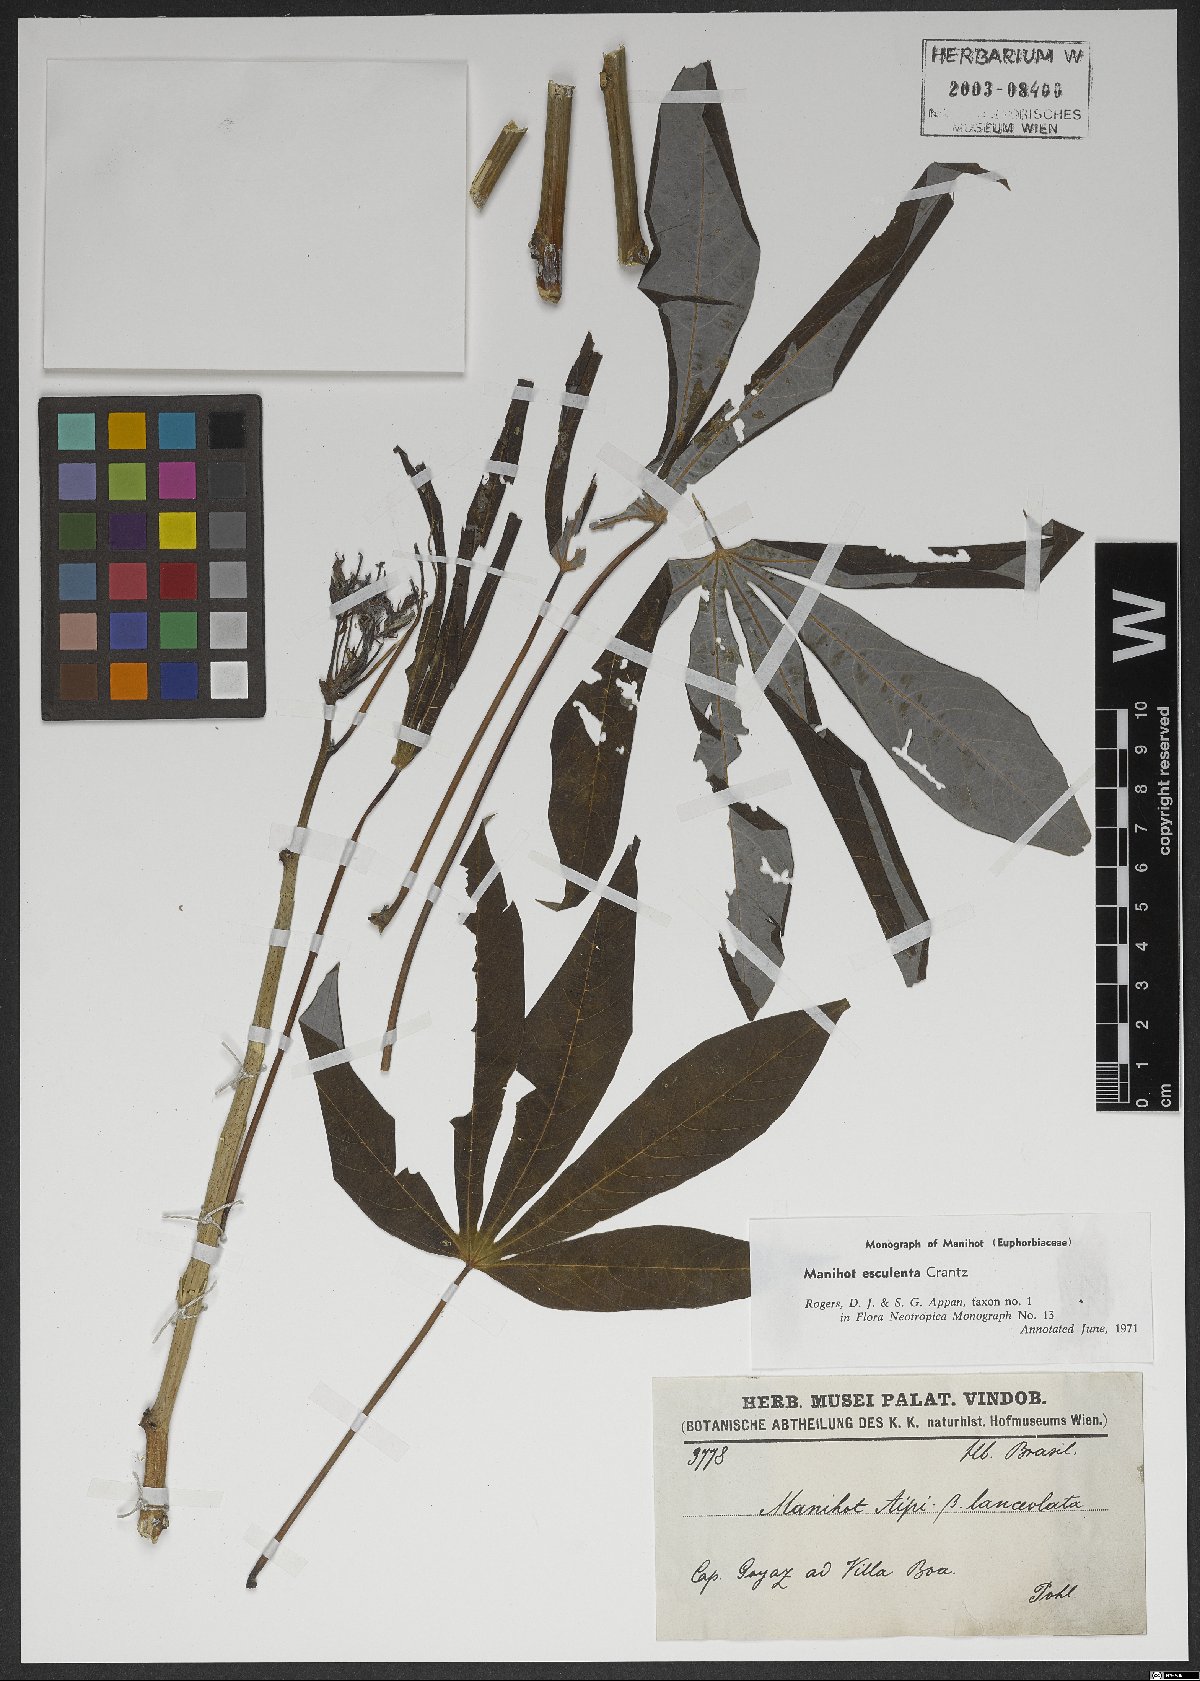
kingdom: Plantae
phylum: Tracheophyta
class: Magnoliopsida
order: Malpighiales
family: Euphorbiaceae
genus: Manihot
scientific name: Manihot esculenta
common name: Cassava
